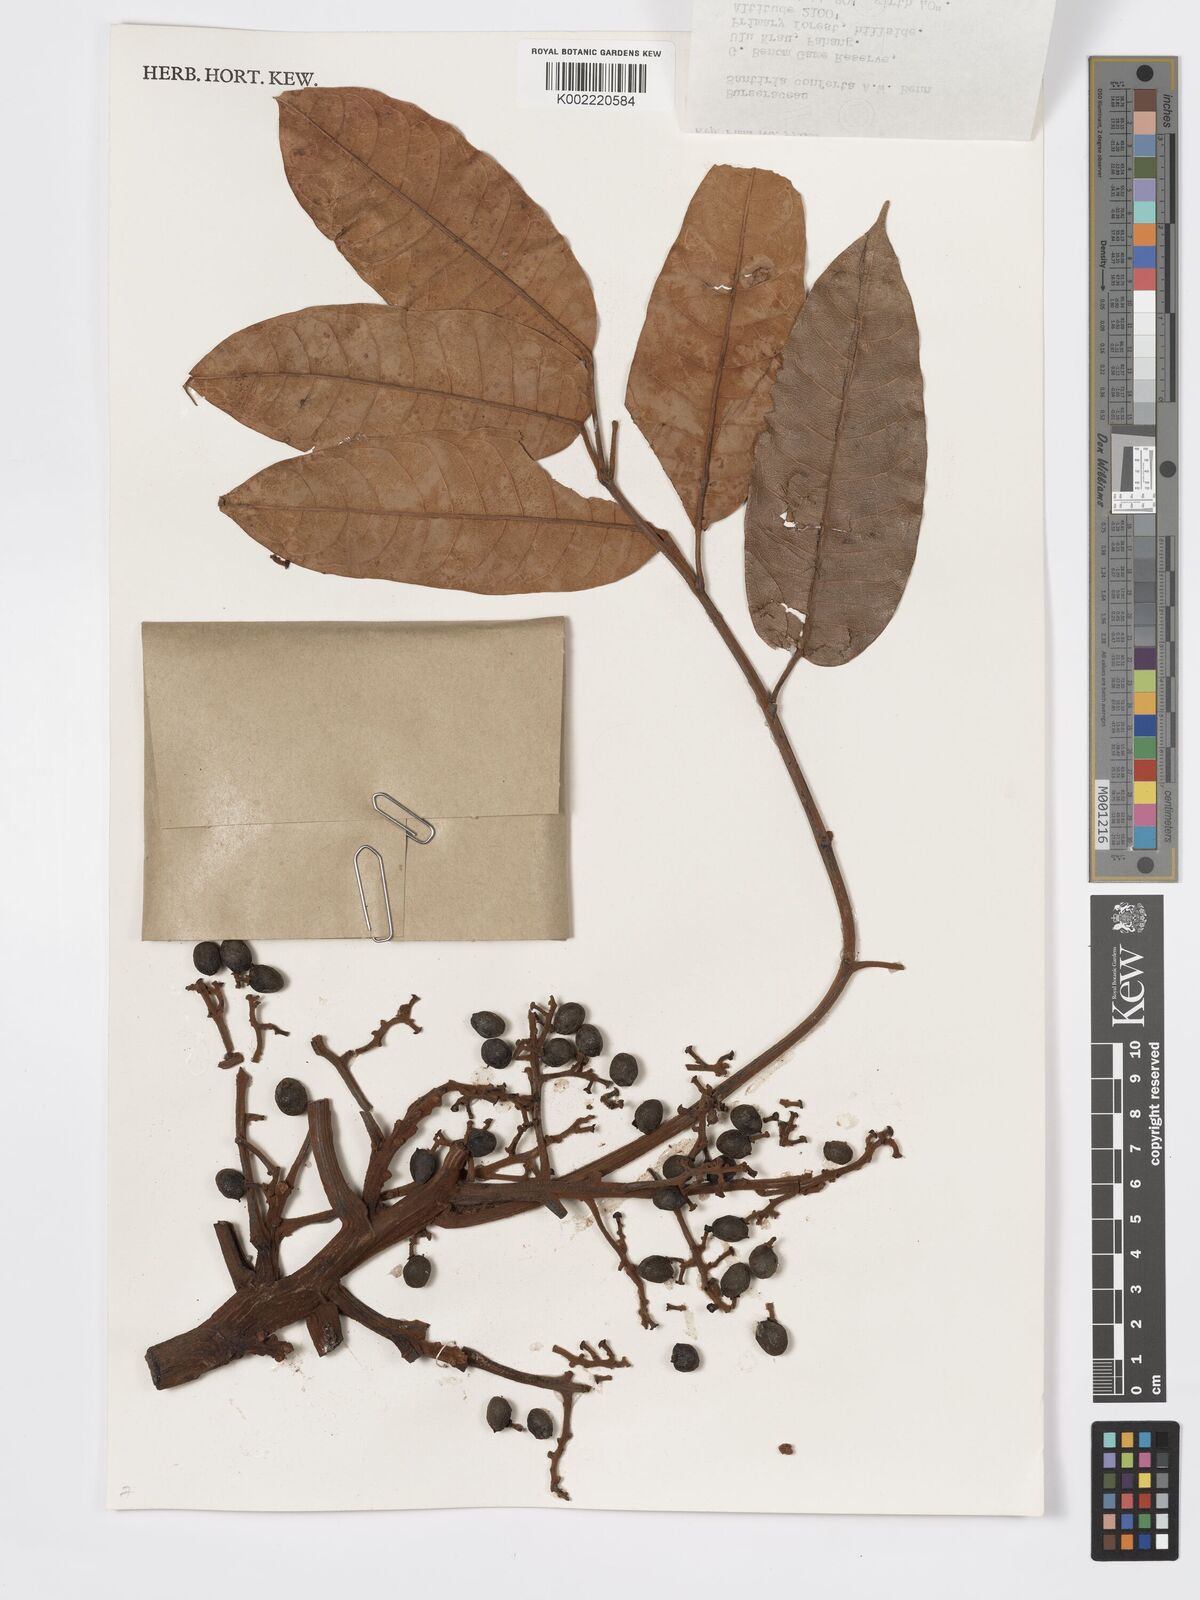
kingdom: Plantae
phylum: Tracheophyta
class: Magnoliopsida
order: Sapindales
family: Burseraceae
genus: Santiria
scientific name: Santiria conferta
